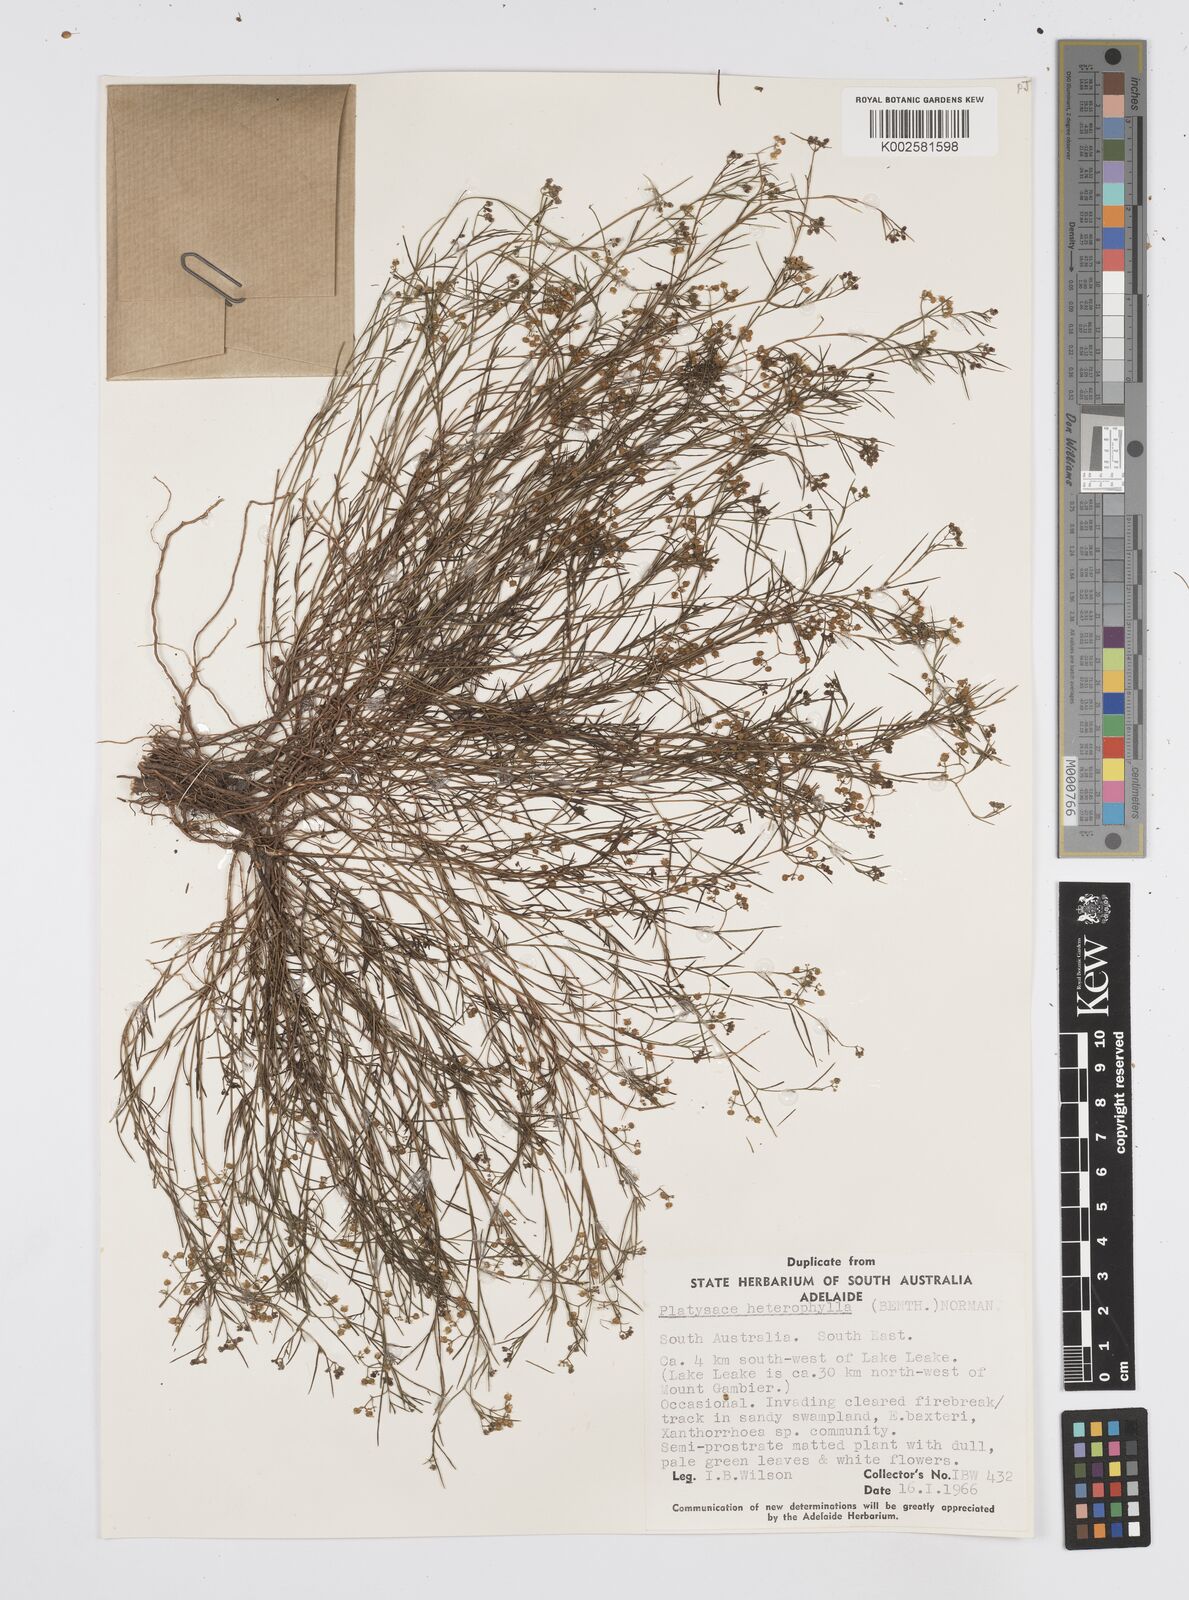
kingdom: Plantae
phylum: Tracheophyta
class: Magnoliopsida
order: Apiales
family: Apiaceae
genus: Platysace
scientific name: Platysace heterophylla
